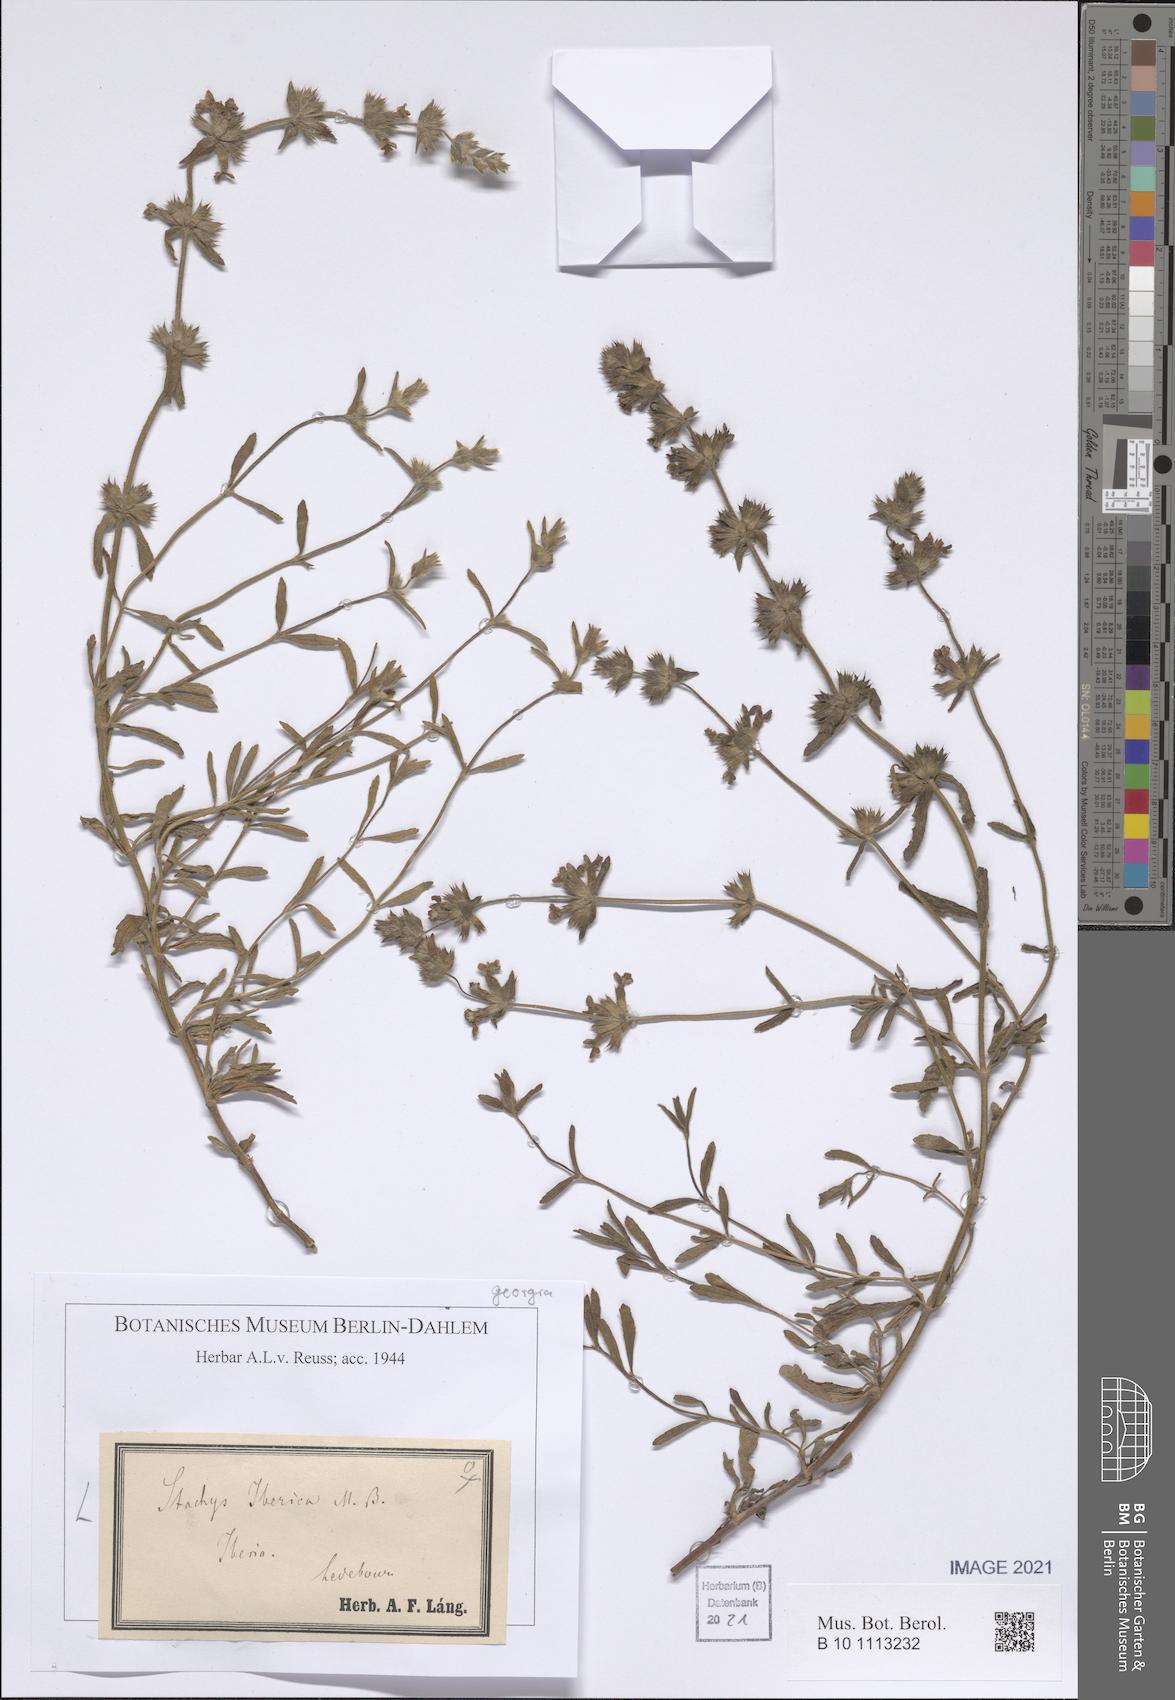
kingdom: Plantae
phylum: Tracheophyta
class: Magnoliopsida
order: Lamiales
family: Lamiaceae
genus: Stachys
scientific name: Stachys iberica
